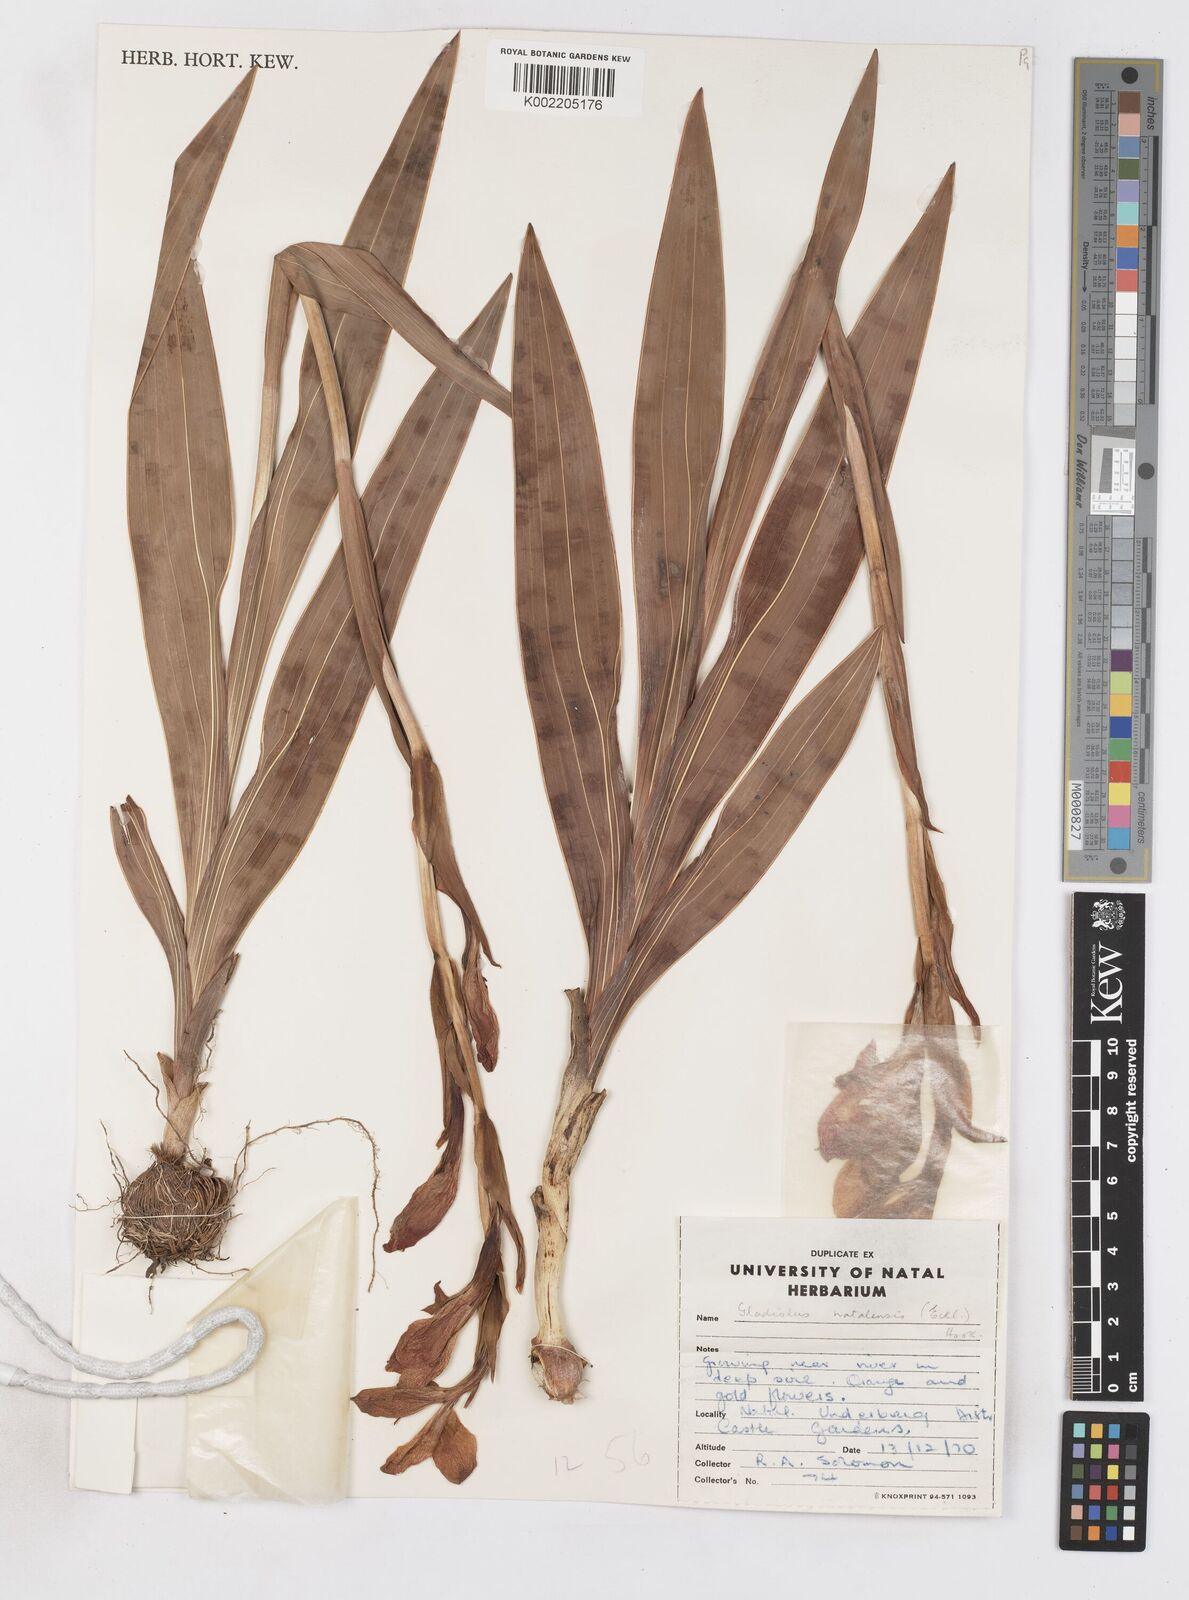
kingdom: Plantae
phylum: Tracheophyta
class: Liliopsida
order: Asparagales
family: Iridaceae
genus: Gladiolus
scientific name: Gladiolus dalenii
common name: Cornflag
